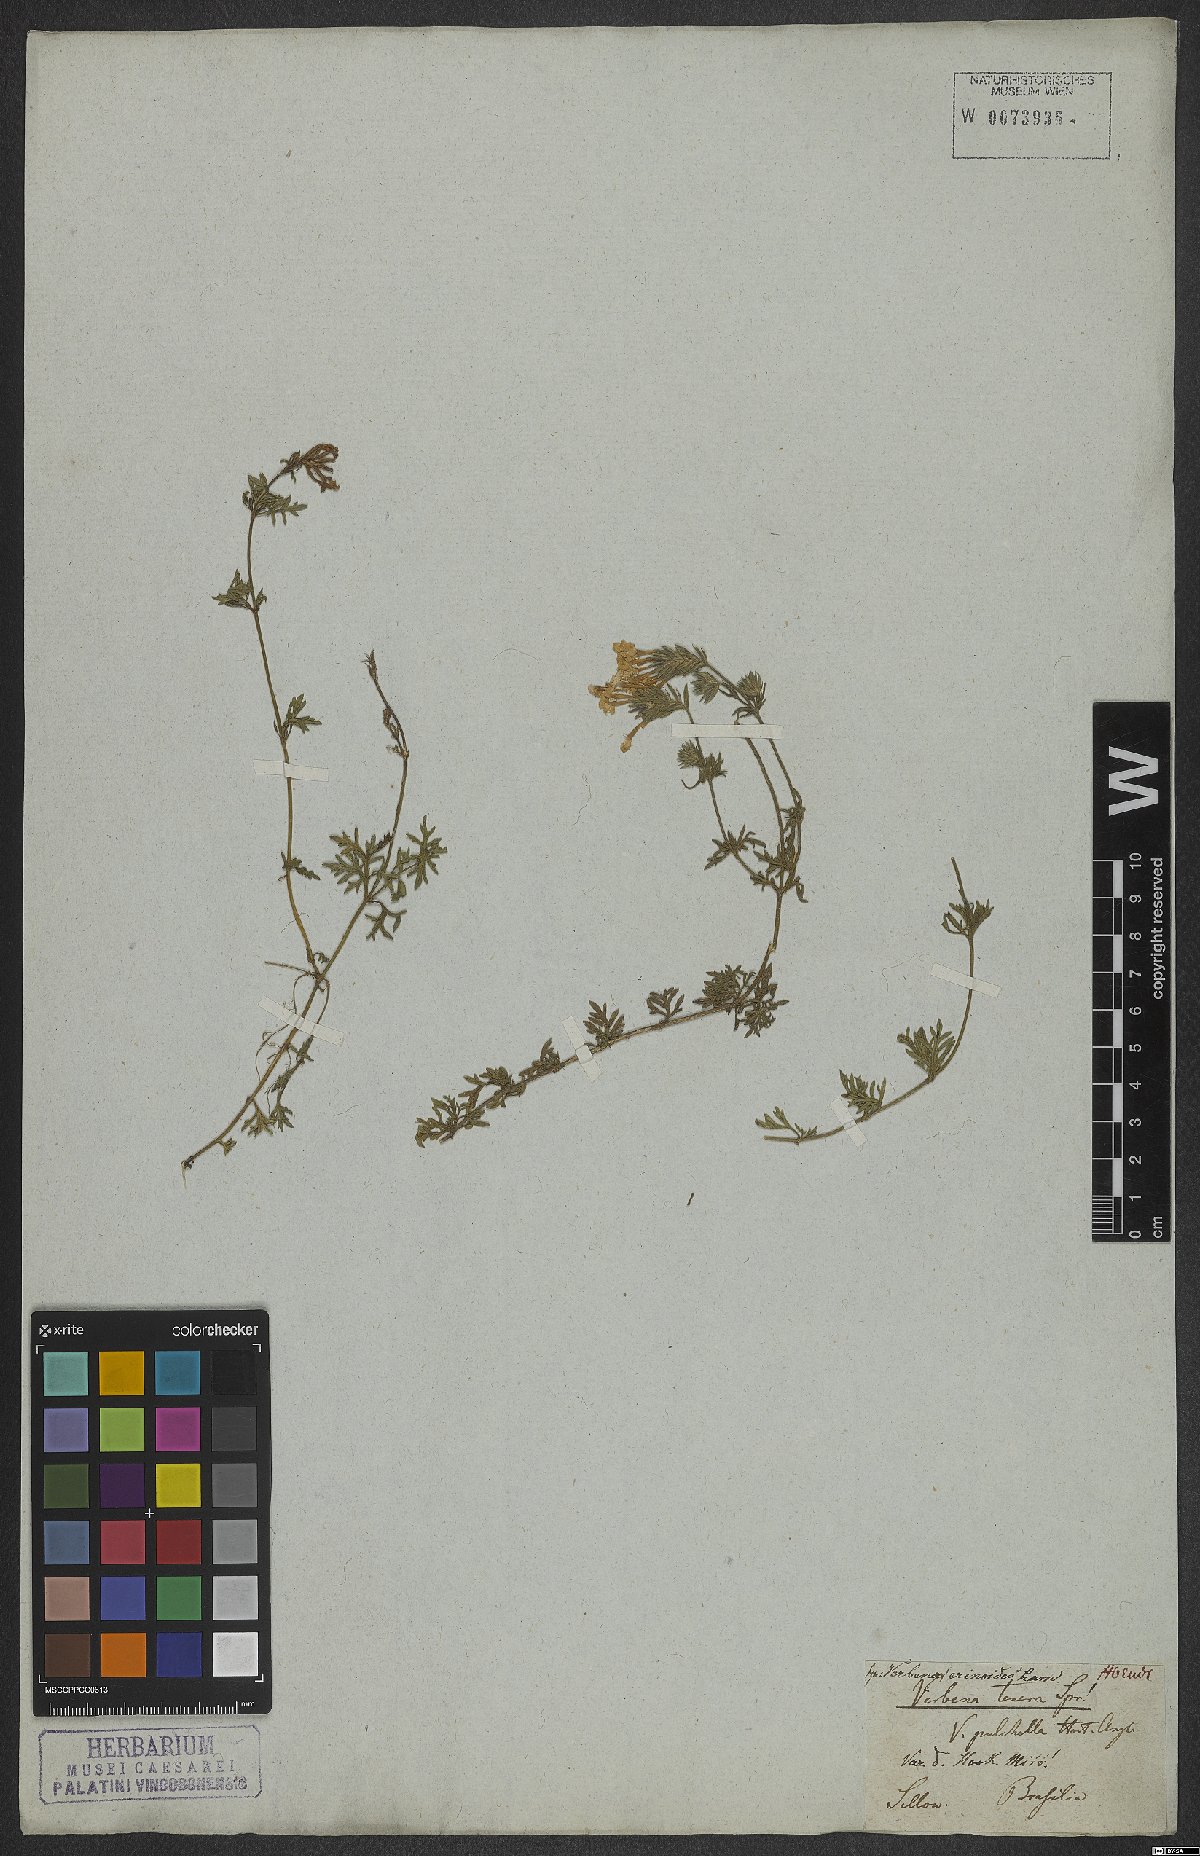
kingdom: Plantae
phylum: Tracheophyta
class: Magnoliopsida
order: Lamiales
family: Verbenaceae
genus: Verbena
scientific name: Verbena tenera
